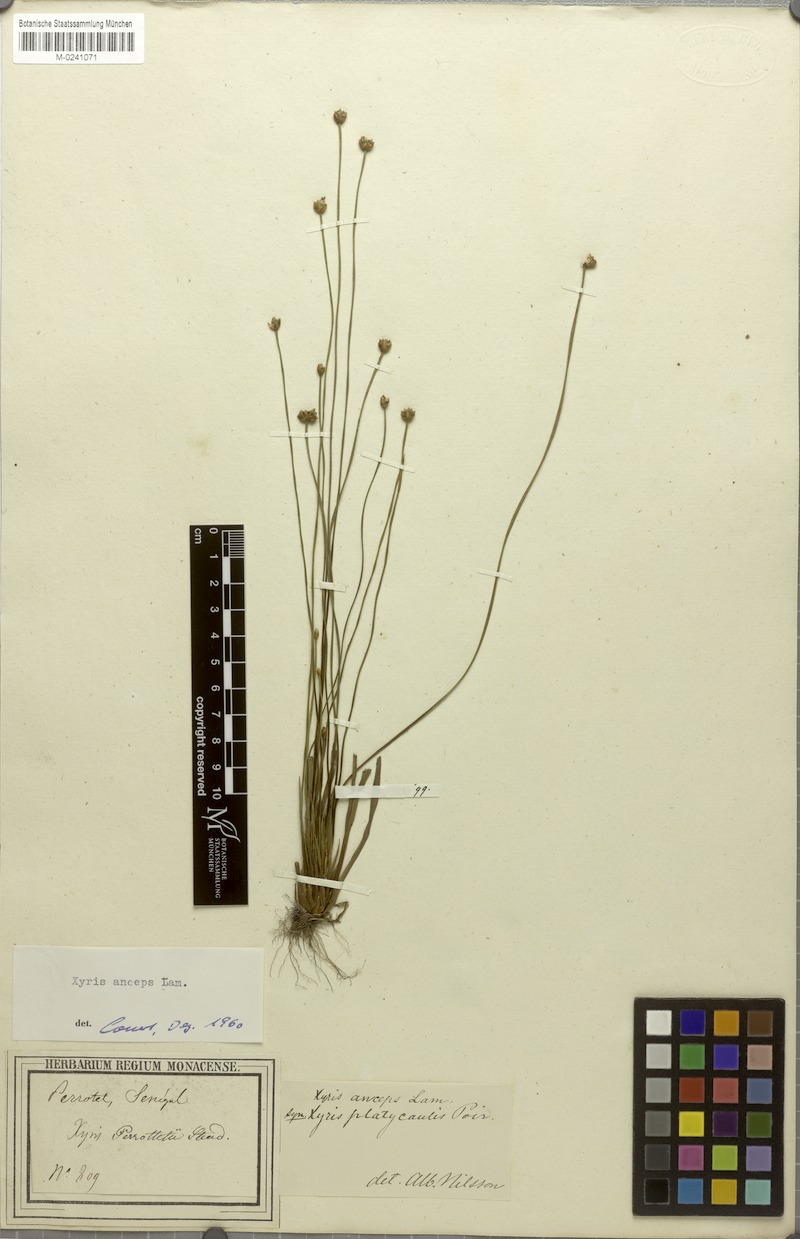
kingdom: Plantae
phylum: Tracheophyta
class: Liliopsida
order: Poales
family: Xyridaceae
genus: Xyris
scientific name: Xyris anceps
